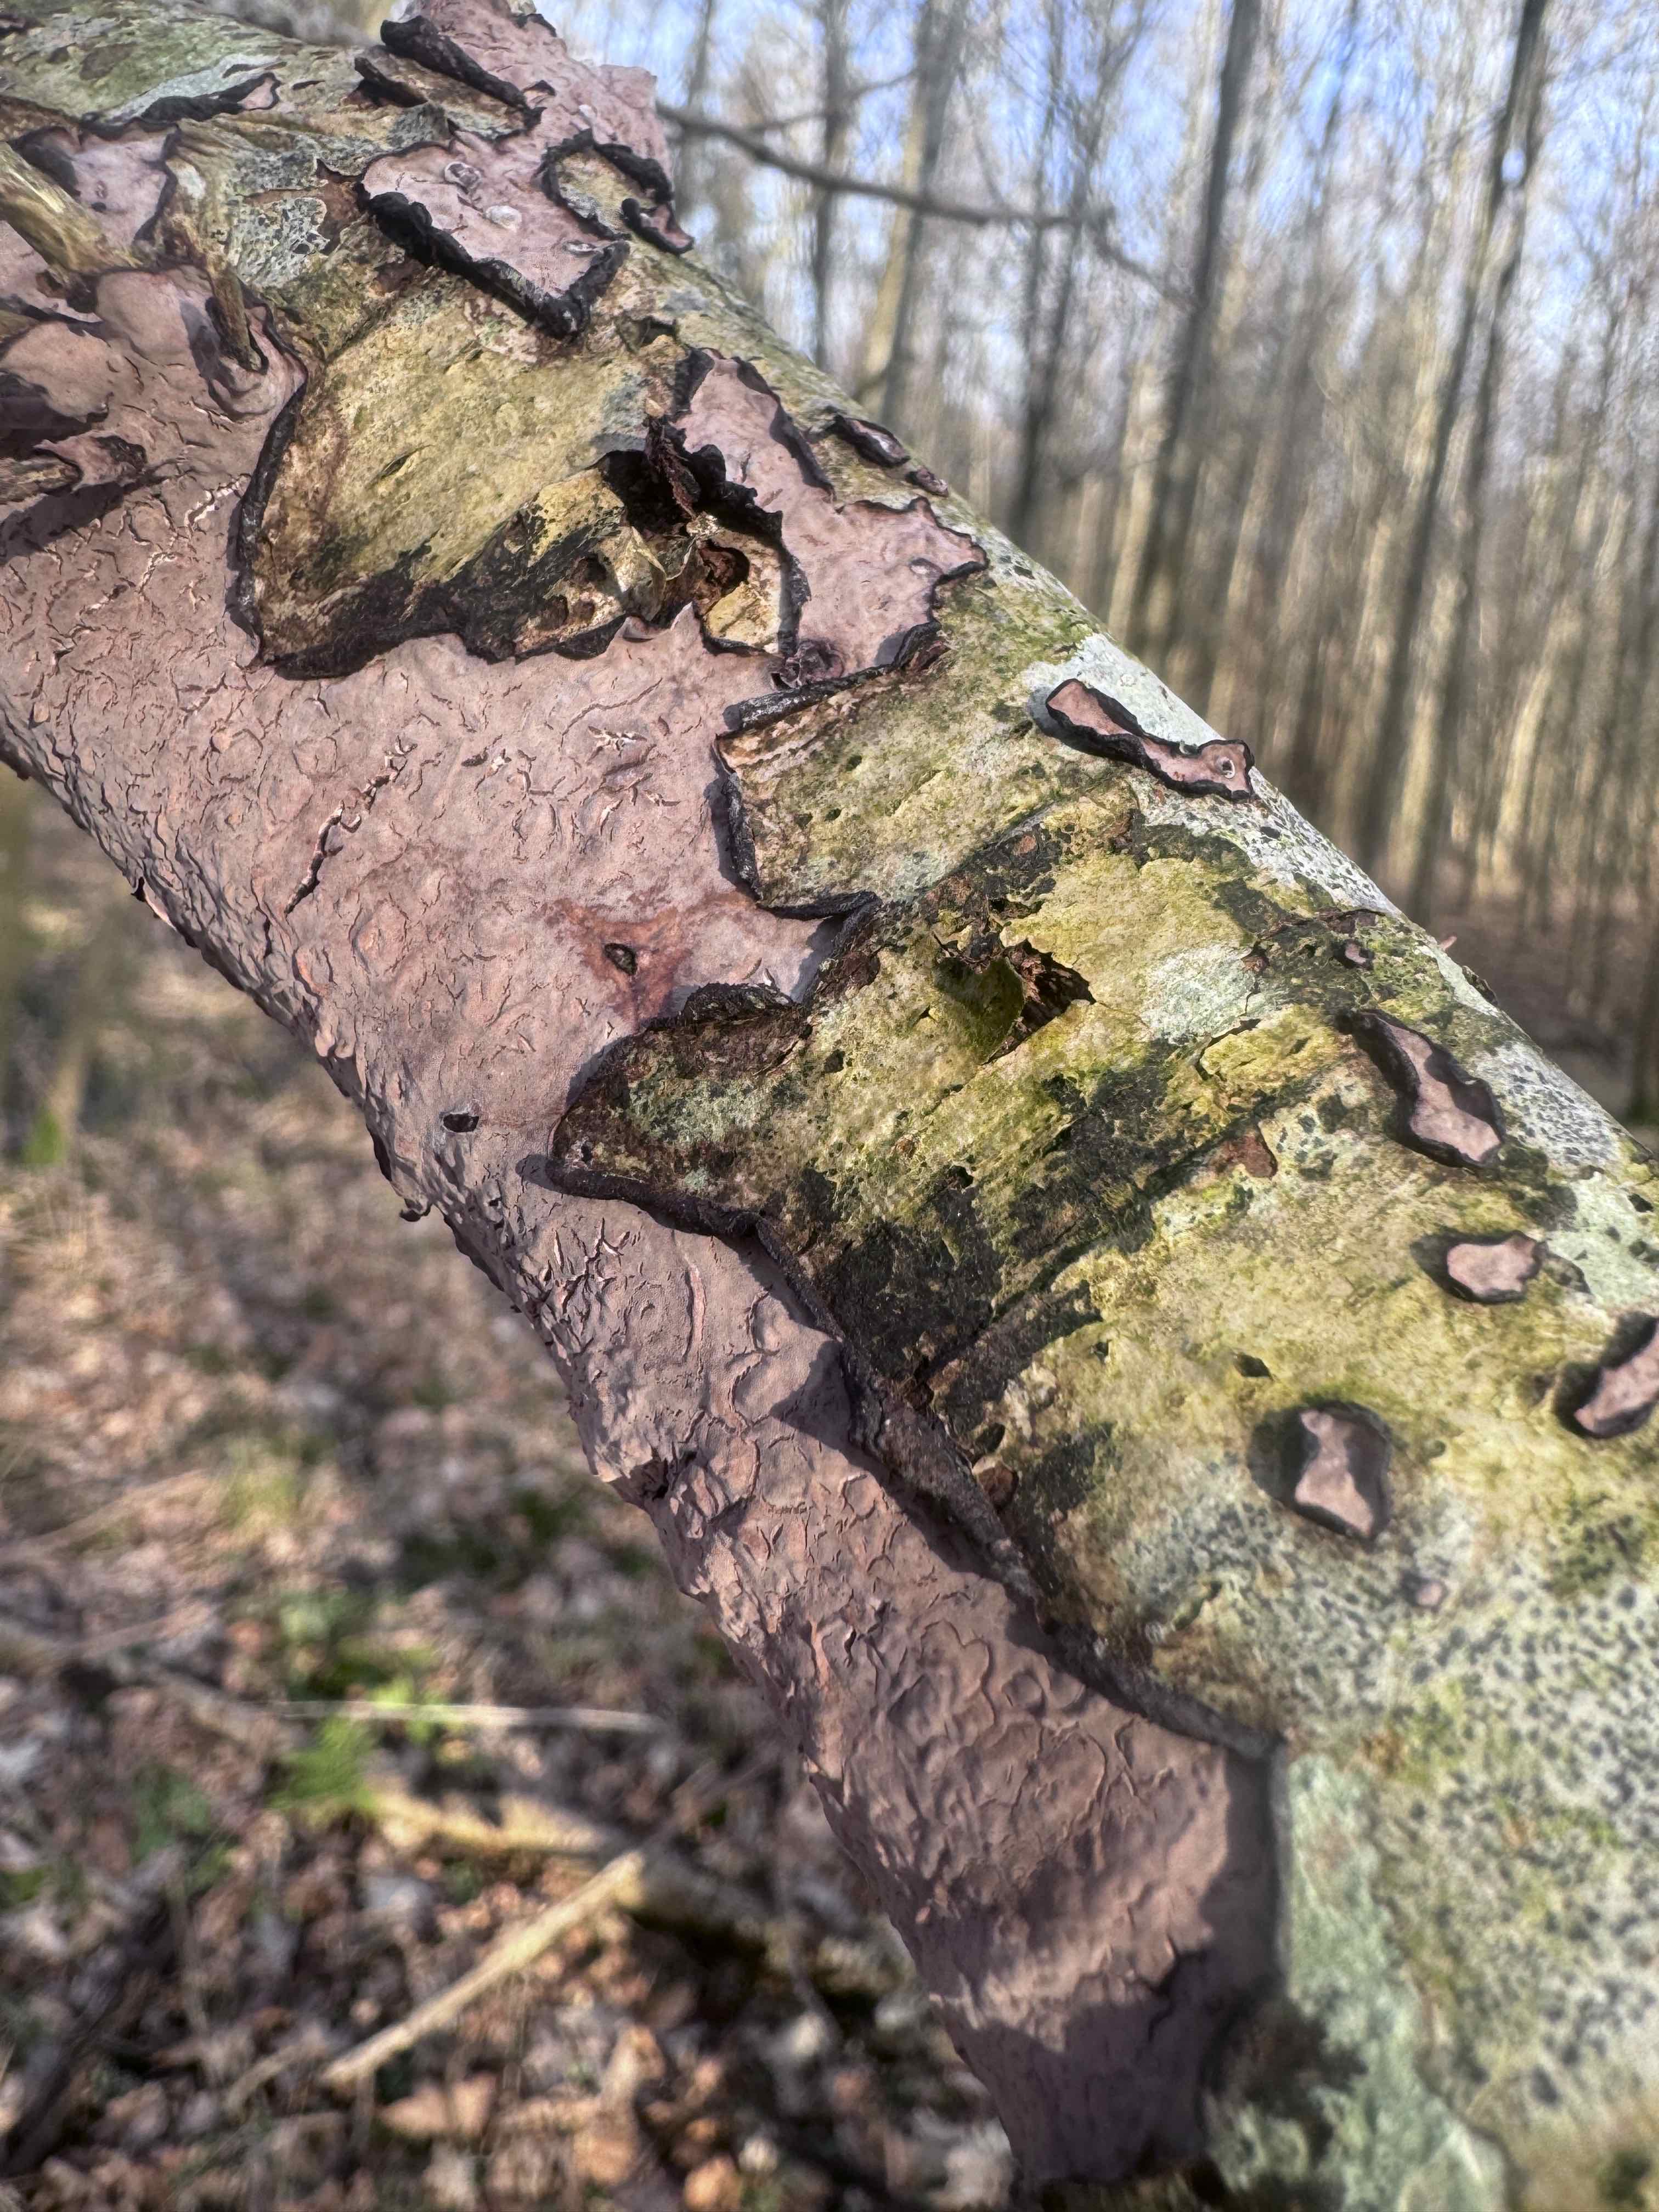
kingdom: Fungi
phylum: Basidiomycota
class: Agaricomycetes
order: Russulales
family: Peniophoraceae
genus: Peniophora
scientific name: Peniophora quercina
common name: ege-voksskind
